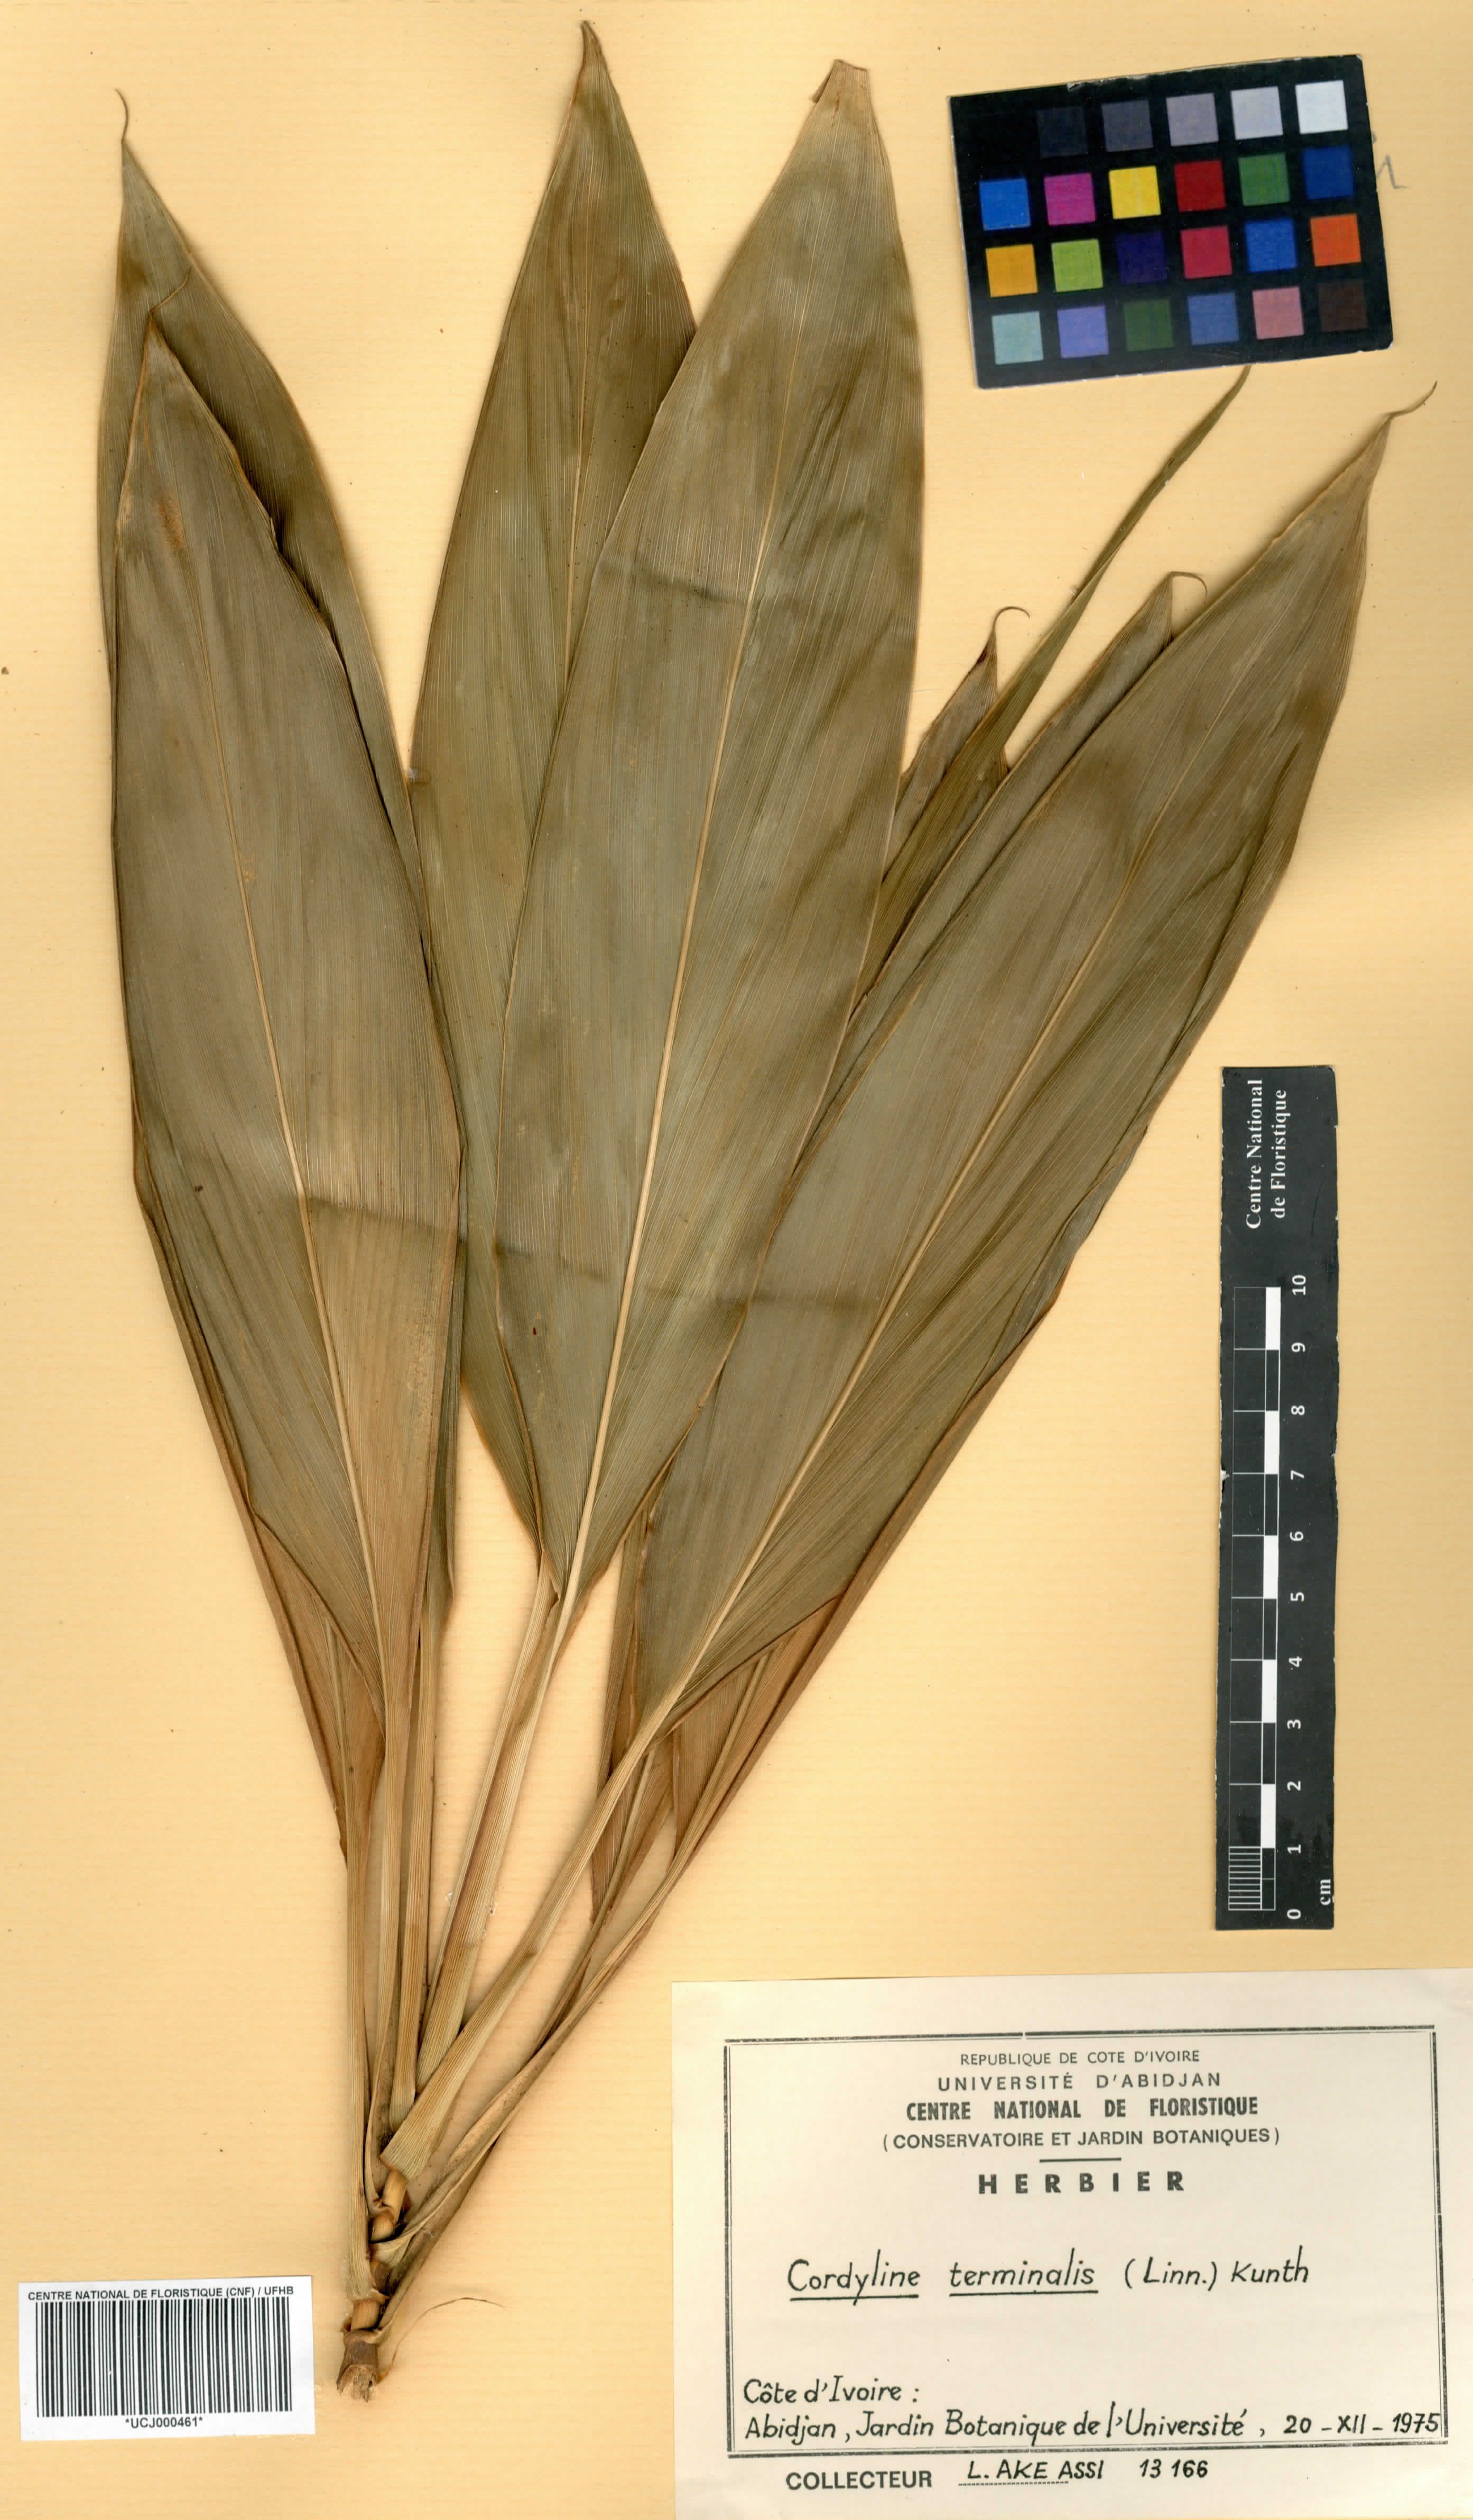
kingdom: Plantae
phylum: Tracheophyta
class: Liliopsida
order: Asparagales
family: Asparagaceae
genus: Cordyline
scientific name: Cordyline fruticosa
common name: Good-luck-plant
